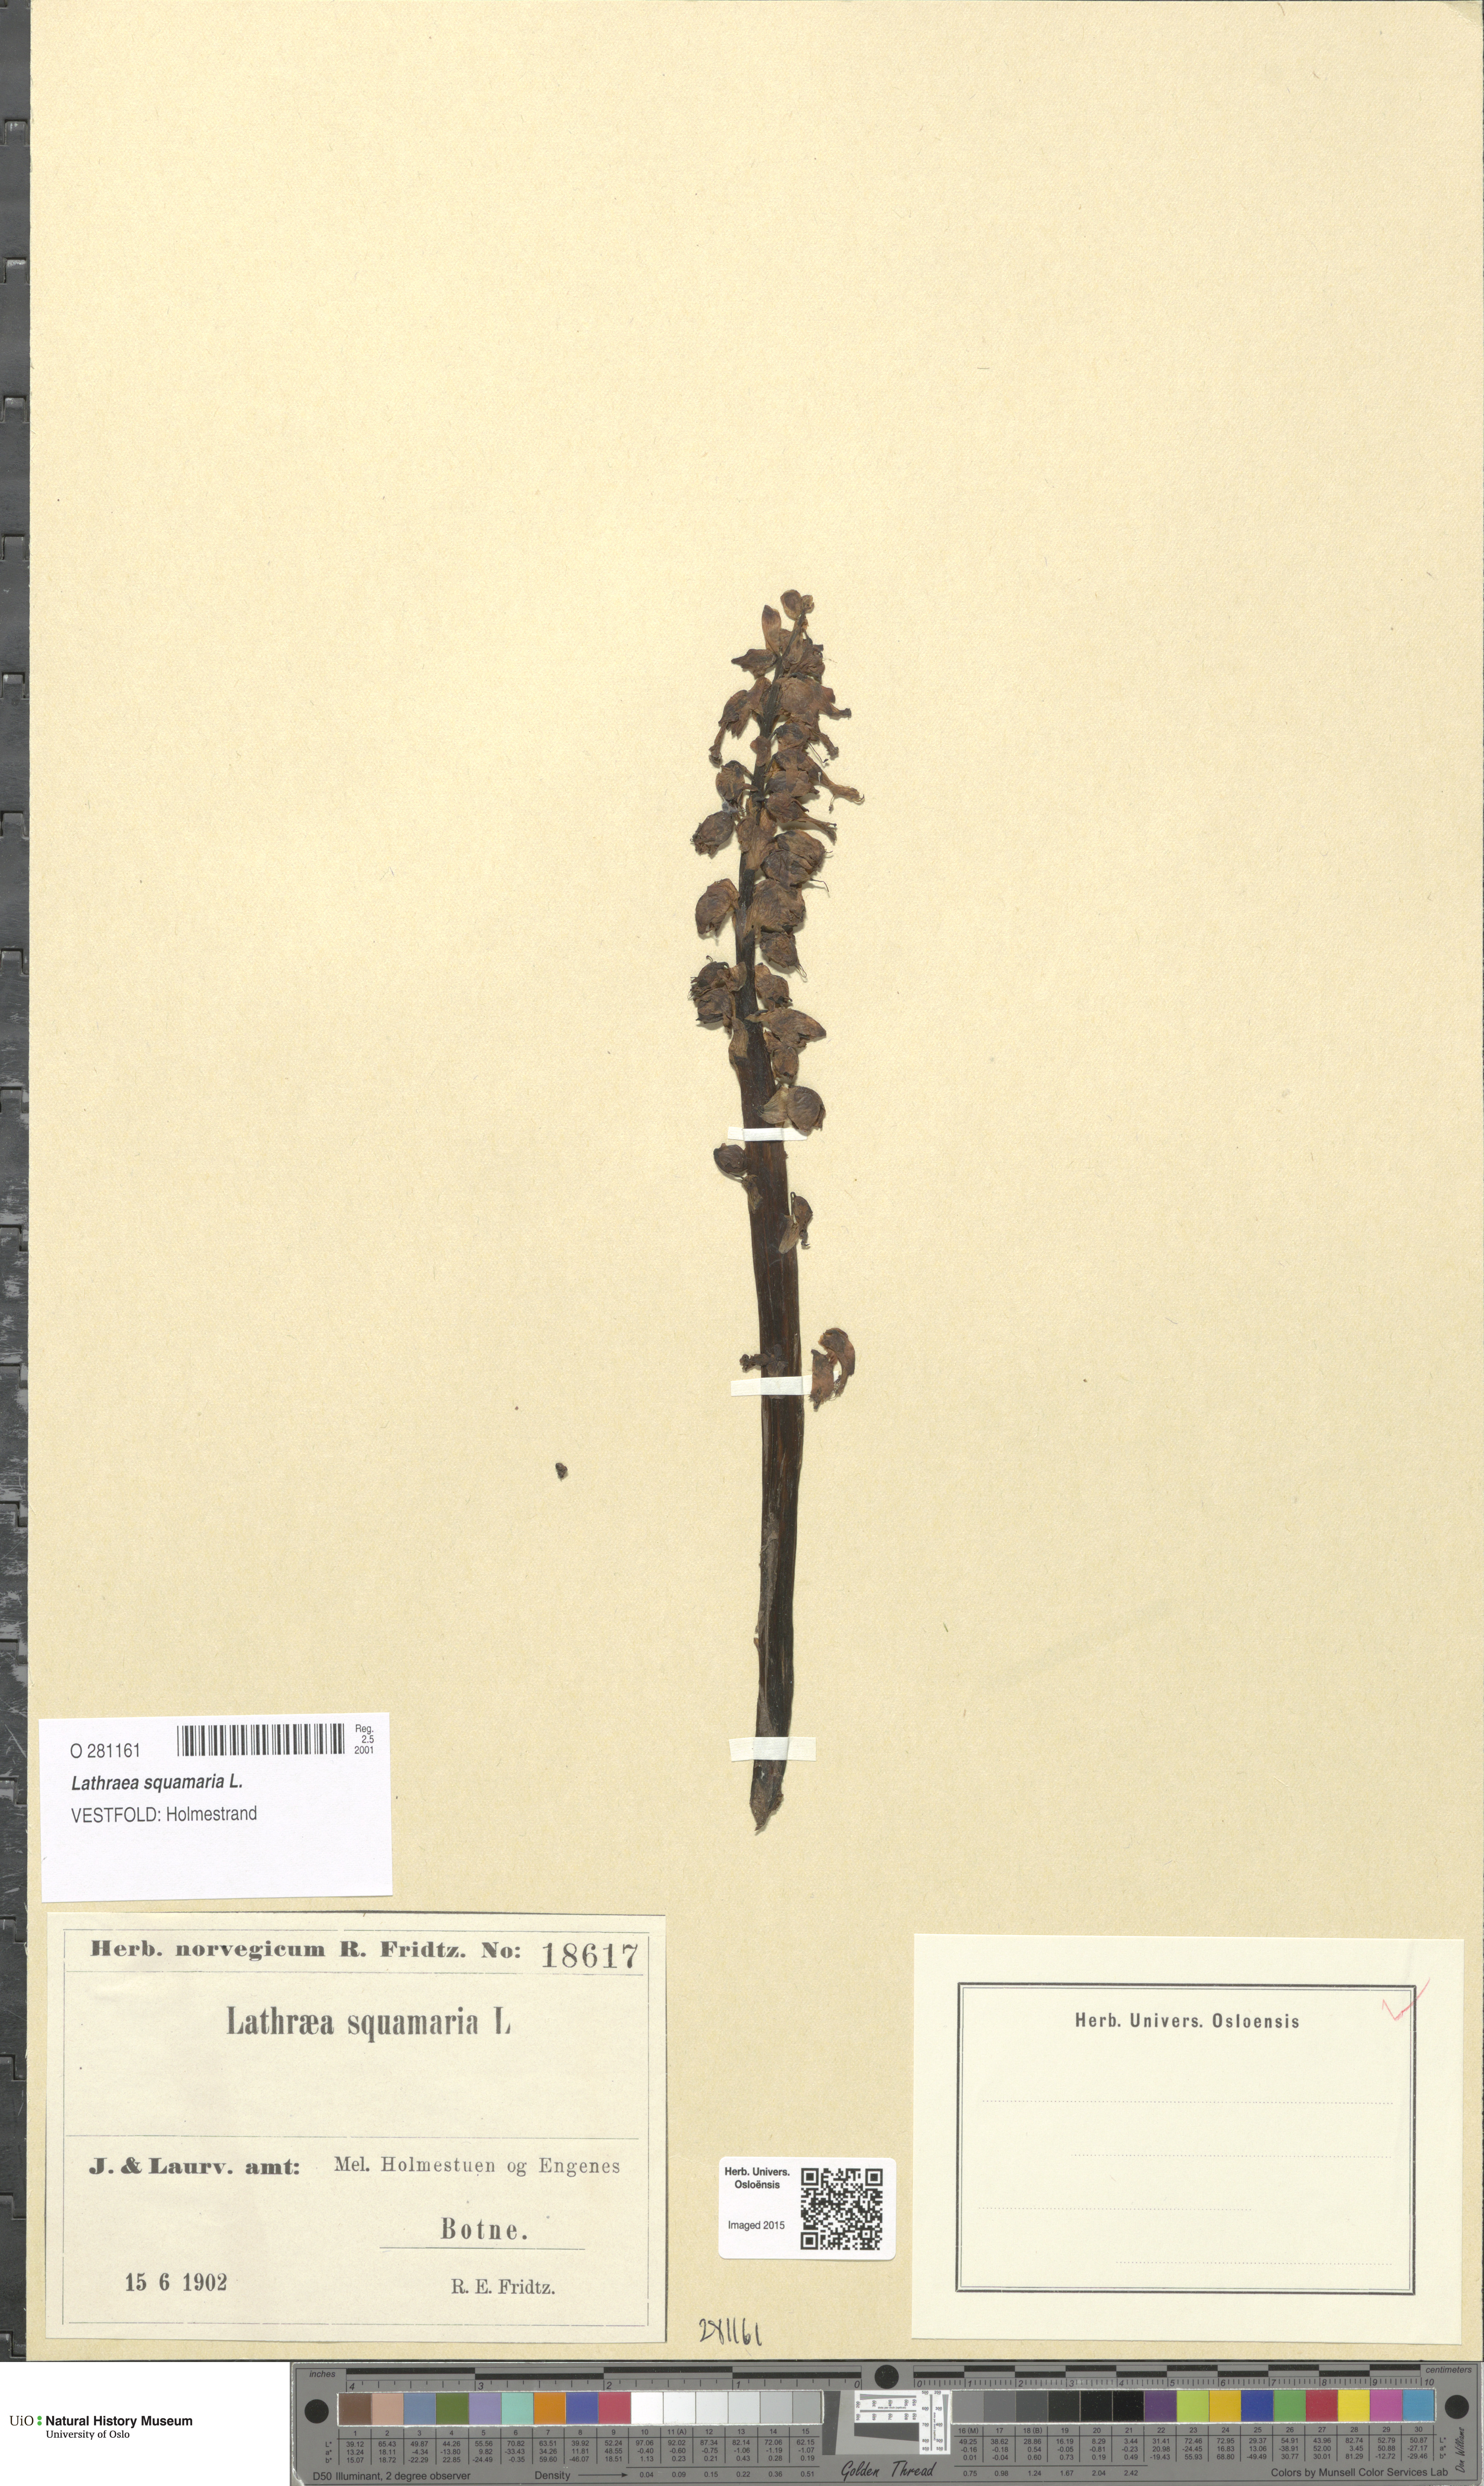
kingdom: Plantae
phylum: Tracheophyta
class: Magnoliopsida
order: Lamiales
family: Orobanchaceae
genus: Lathraea
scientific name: Lathraea squamaria
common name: Toothwort
